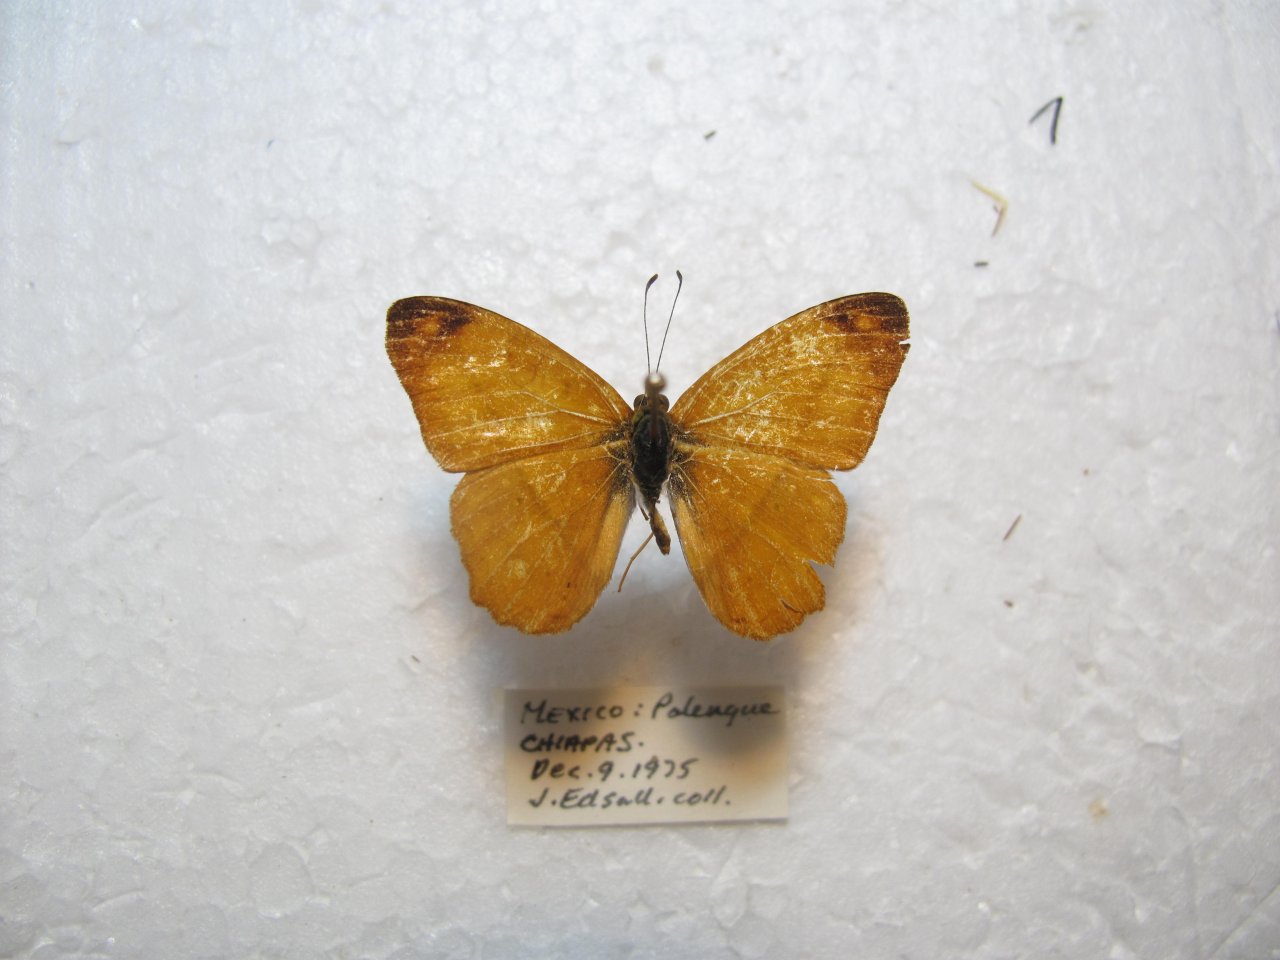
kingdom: Animalia
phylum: Arthropoda
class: Insecta
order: Lepidoptera
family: Nymphalidae
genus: Nica
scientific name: Nica flavilla
